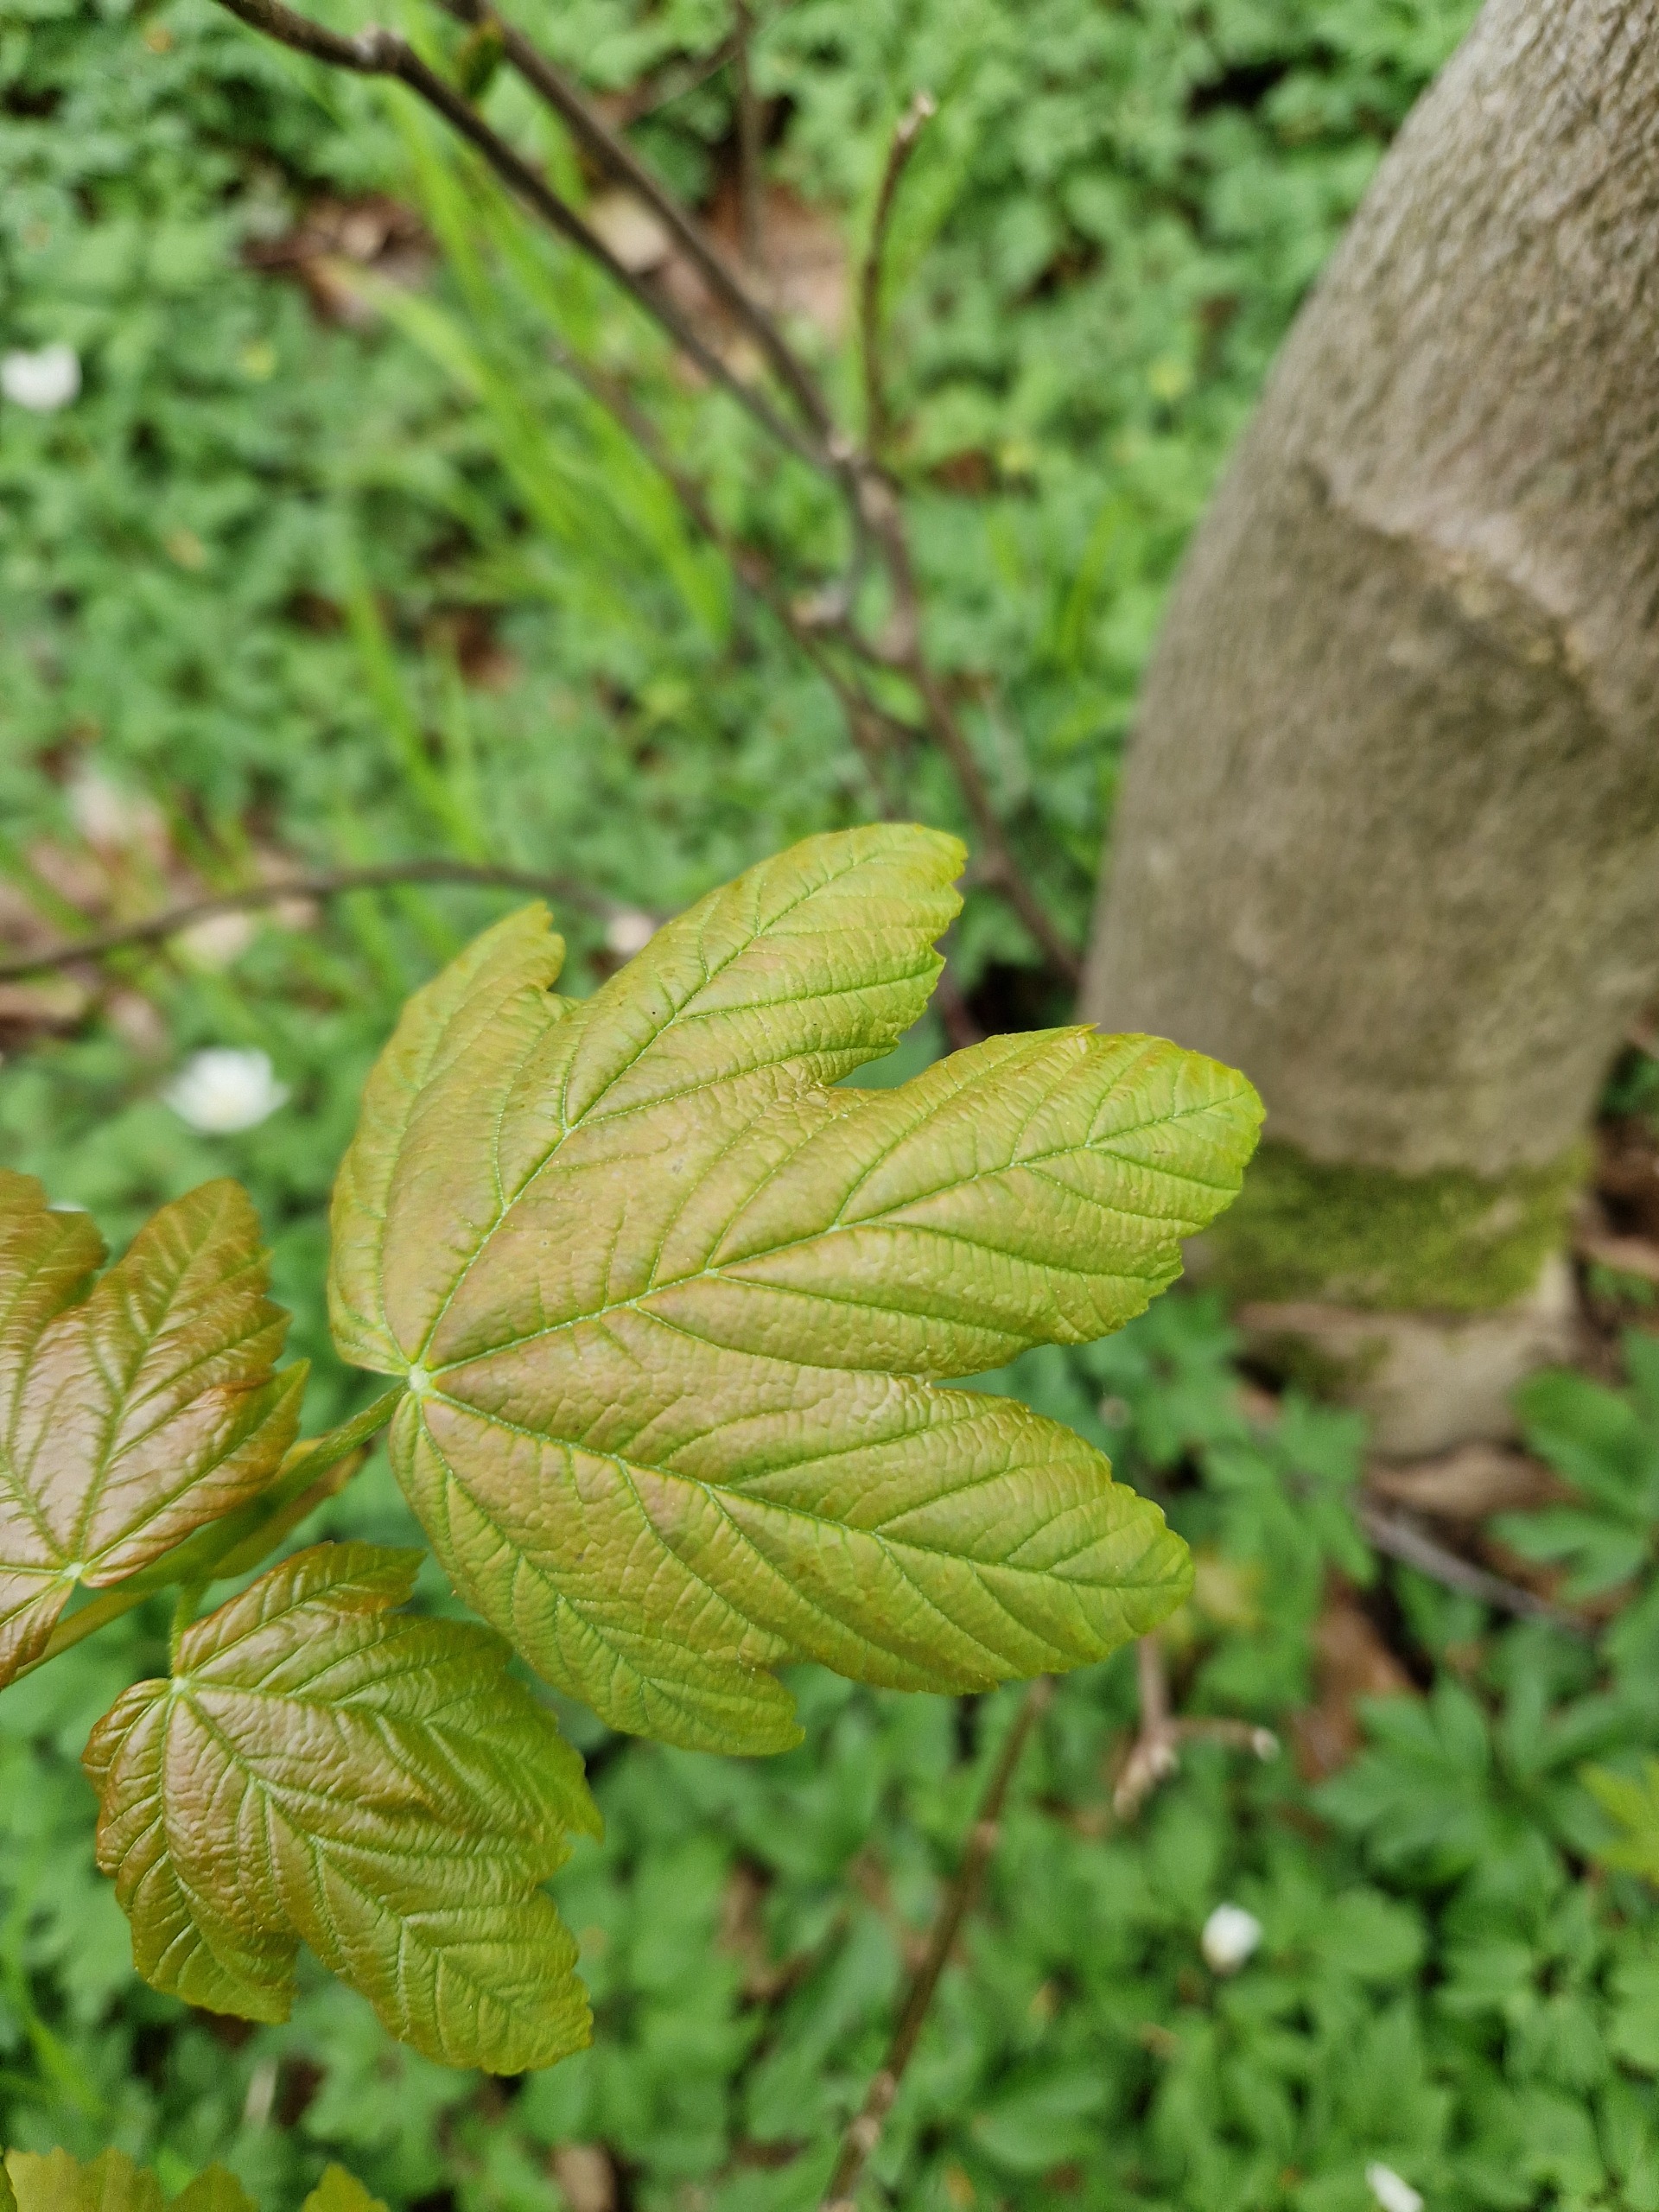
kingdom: Plantae
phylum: Tracheophyta
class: Magnoliopsida
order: Sapindales
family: Sapindaceae
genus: Acer
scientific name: Acer pseudoplatanus
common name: Ahorn
